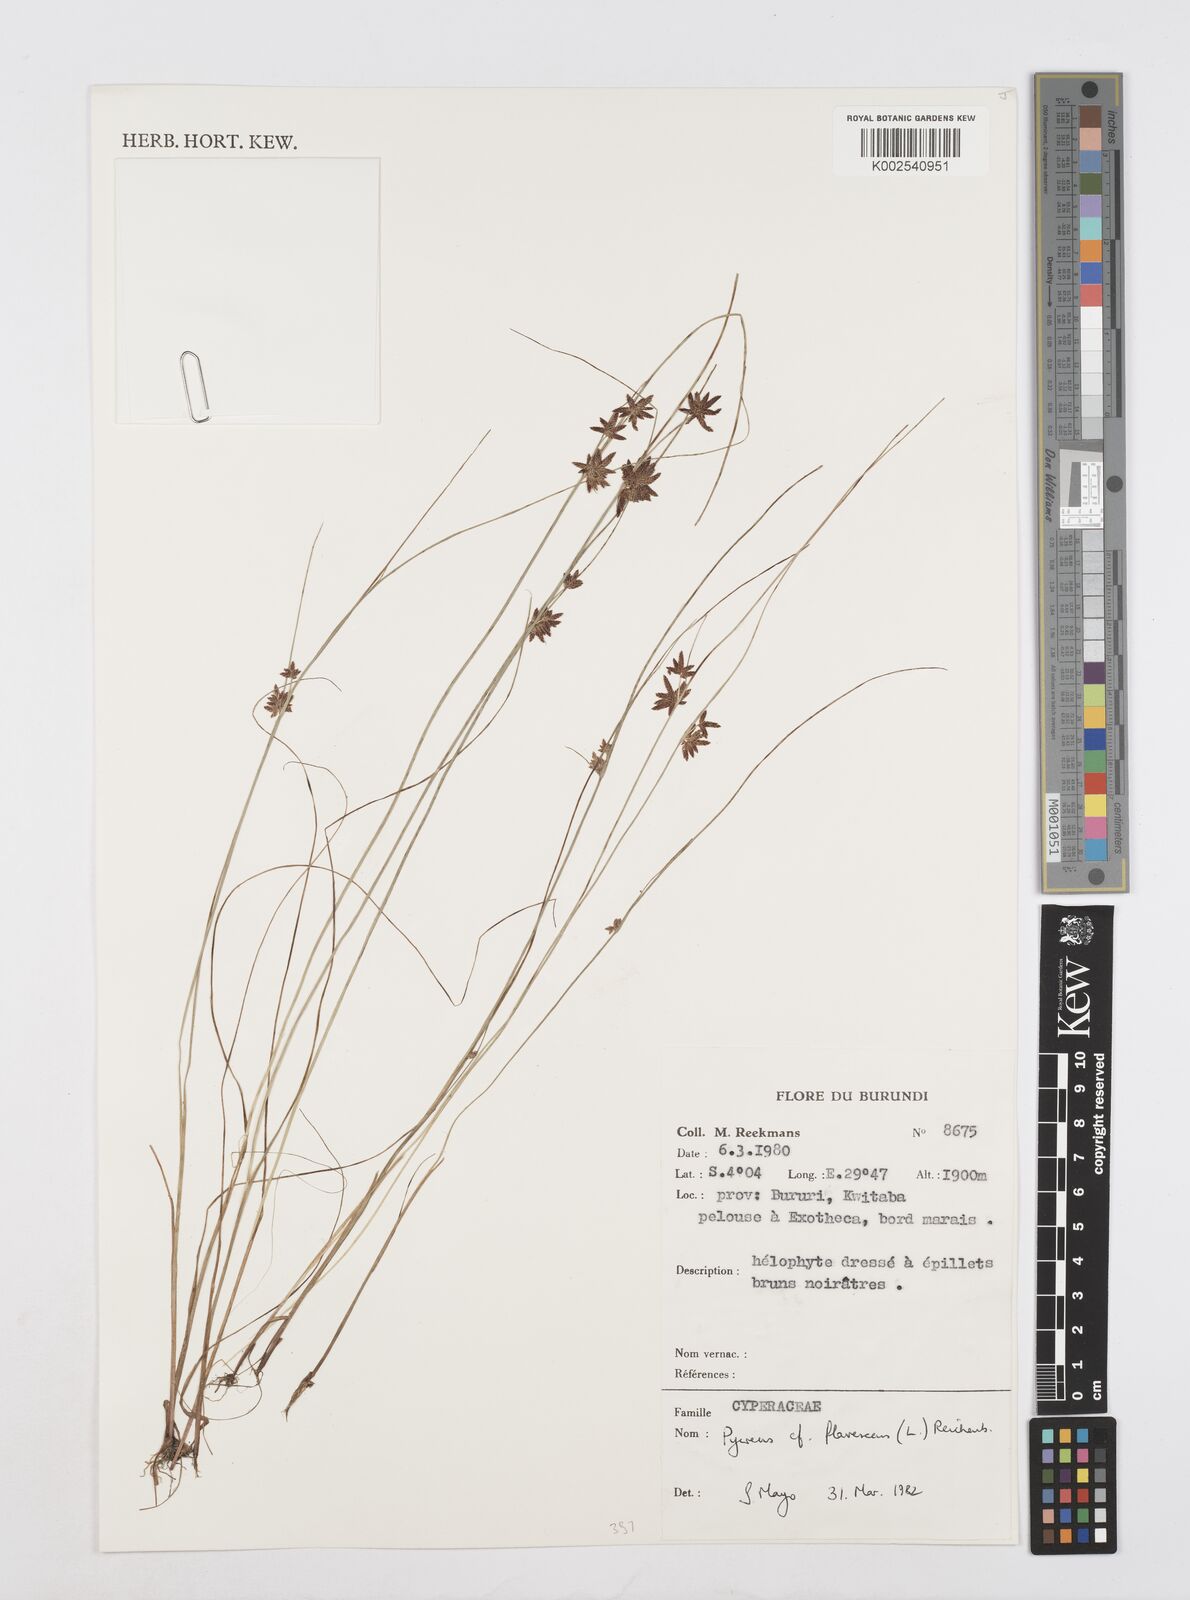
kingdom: Plantae
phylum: Tracheophyta
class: Liliopsida
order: Poales
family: Cyperaceae
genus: Cyperus
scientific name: Cyperus flavescens
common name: Yellow galingale
